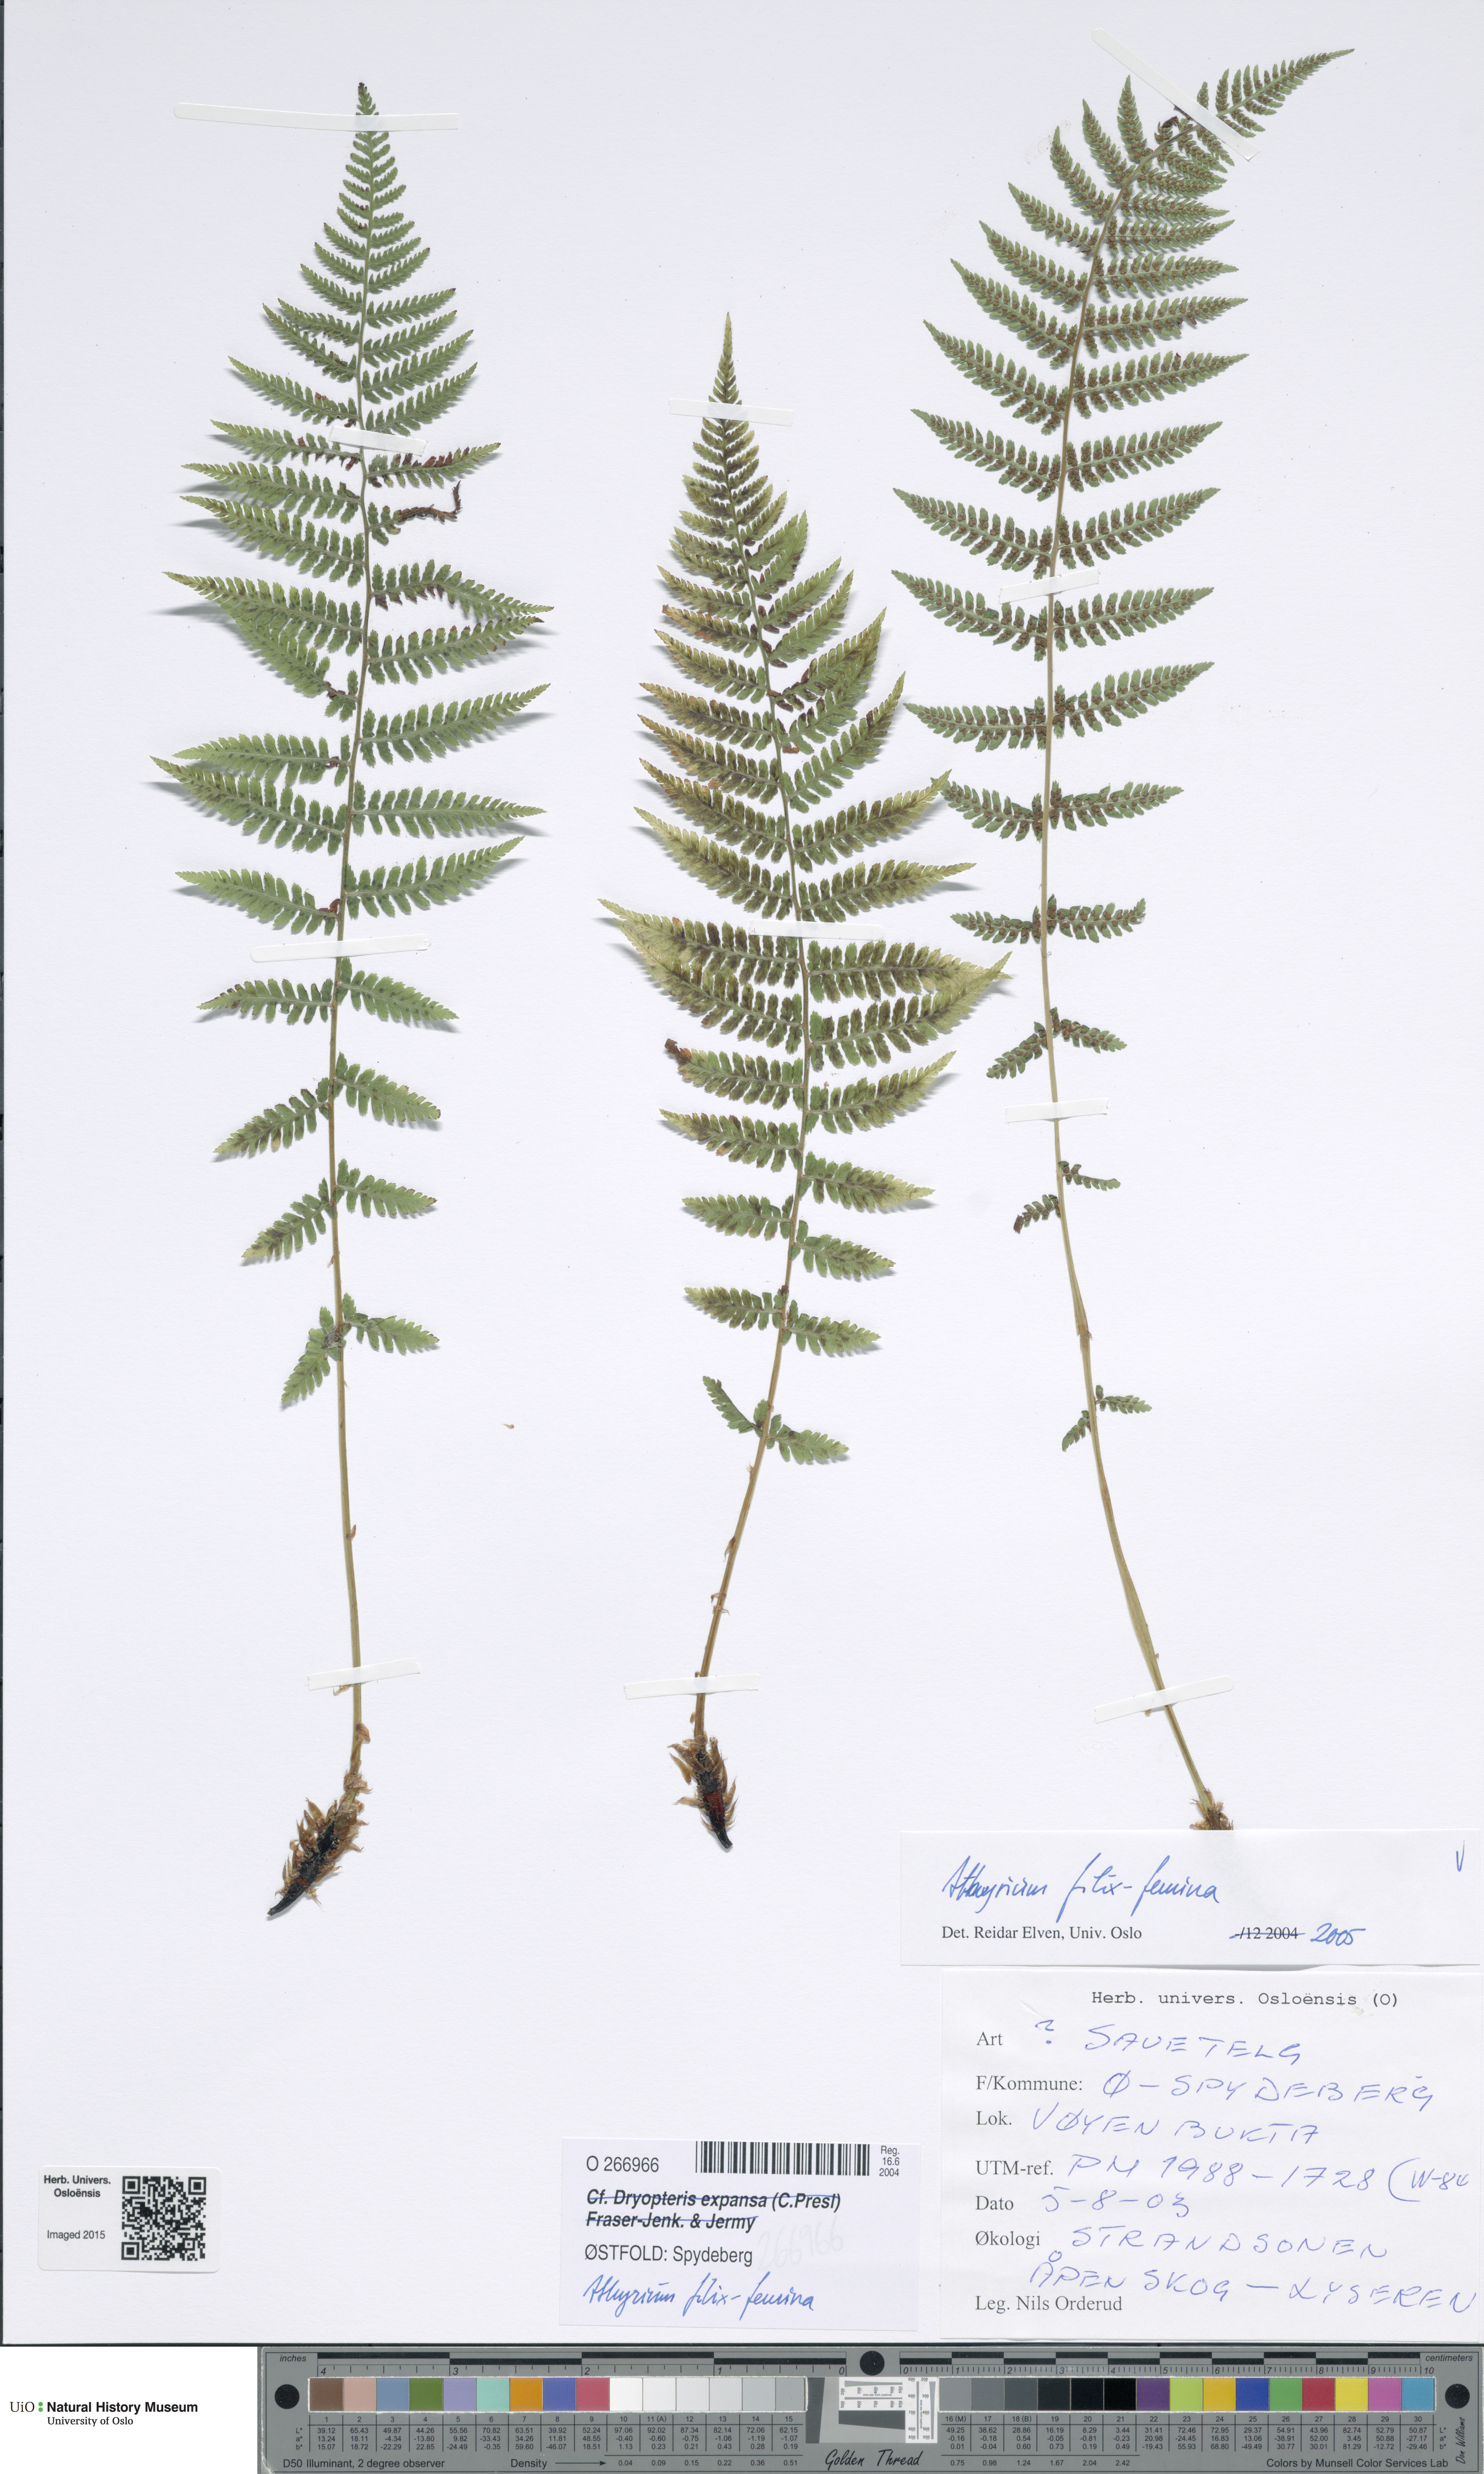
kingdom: Plantae
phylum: Tracheophyta
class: Polypodiopsida
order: Polypodiales
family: Athyriaceae
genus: Athyrium
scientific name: Athyrium filix-femina
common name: Lady fern
